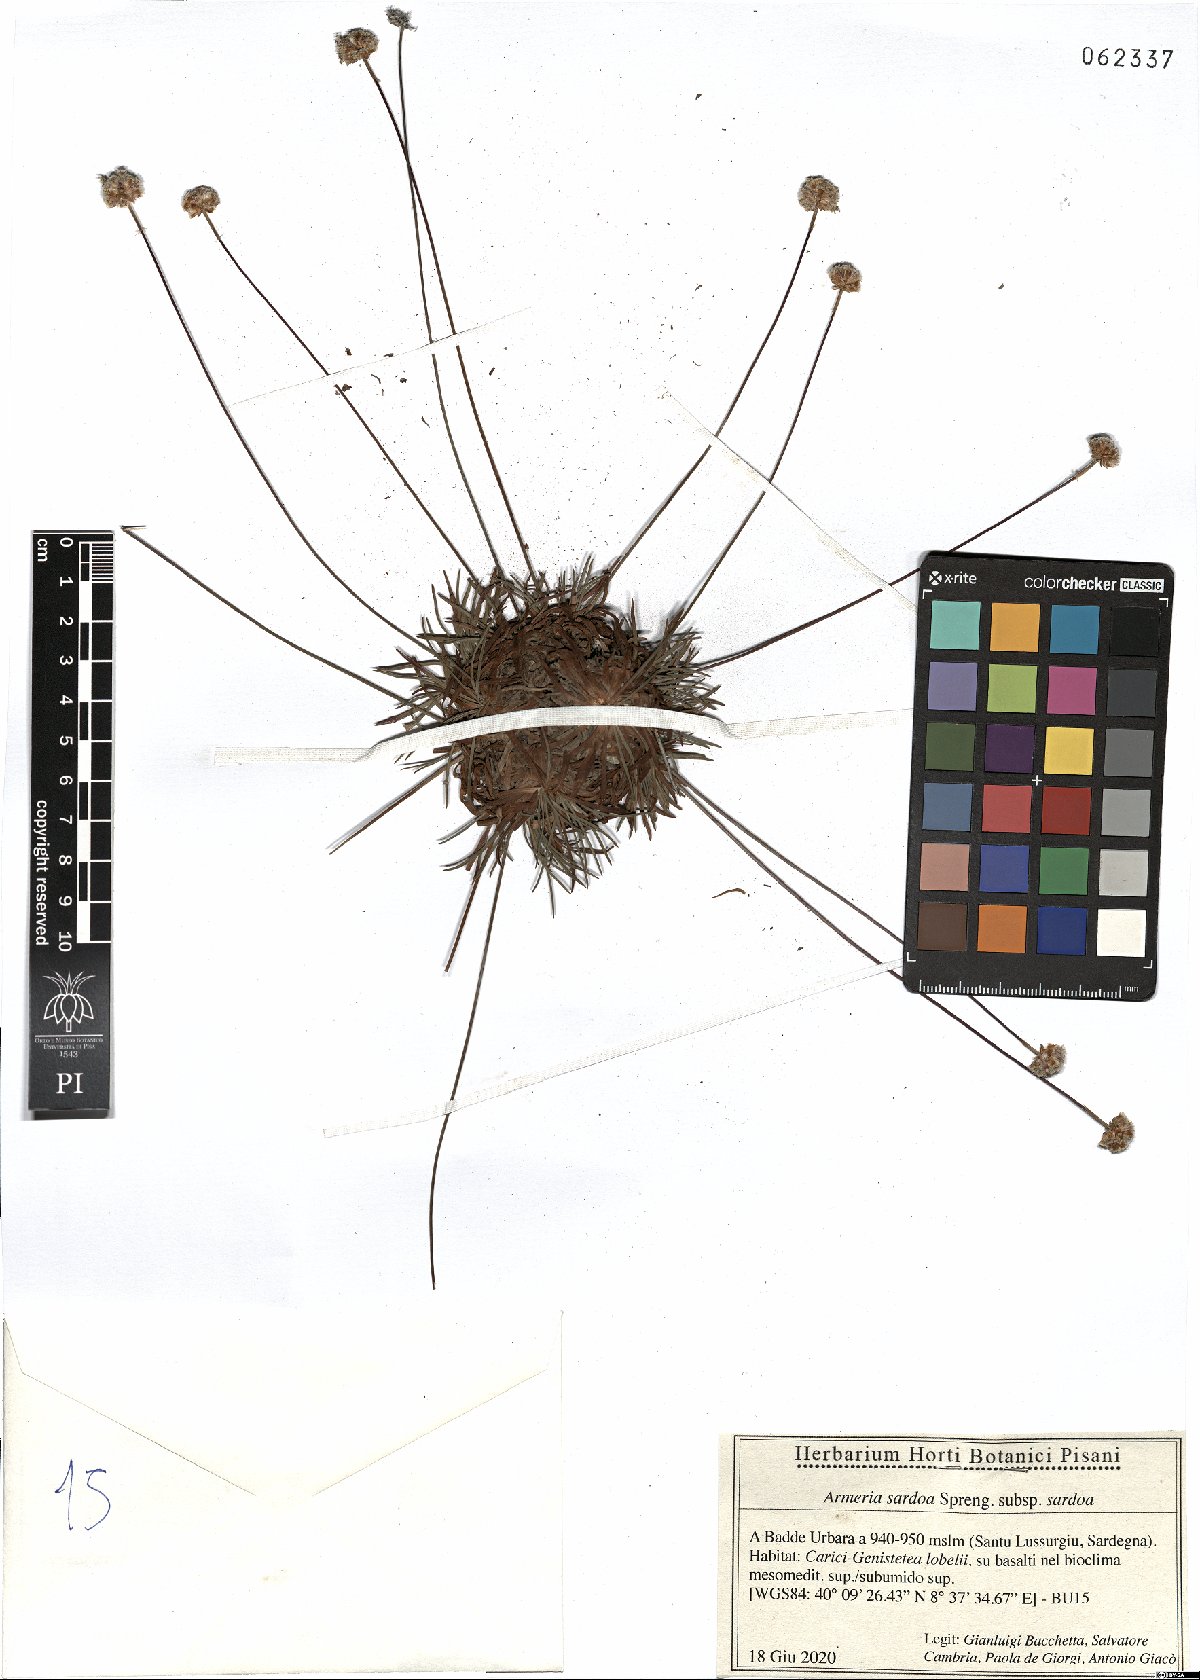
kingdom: Plantae
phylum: Tracheophyta
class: Magnoliopsida
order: Caryophyllales
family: Plumbaginaceae
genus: Armeria
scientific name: Armeria sardoa
